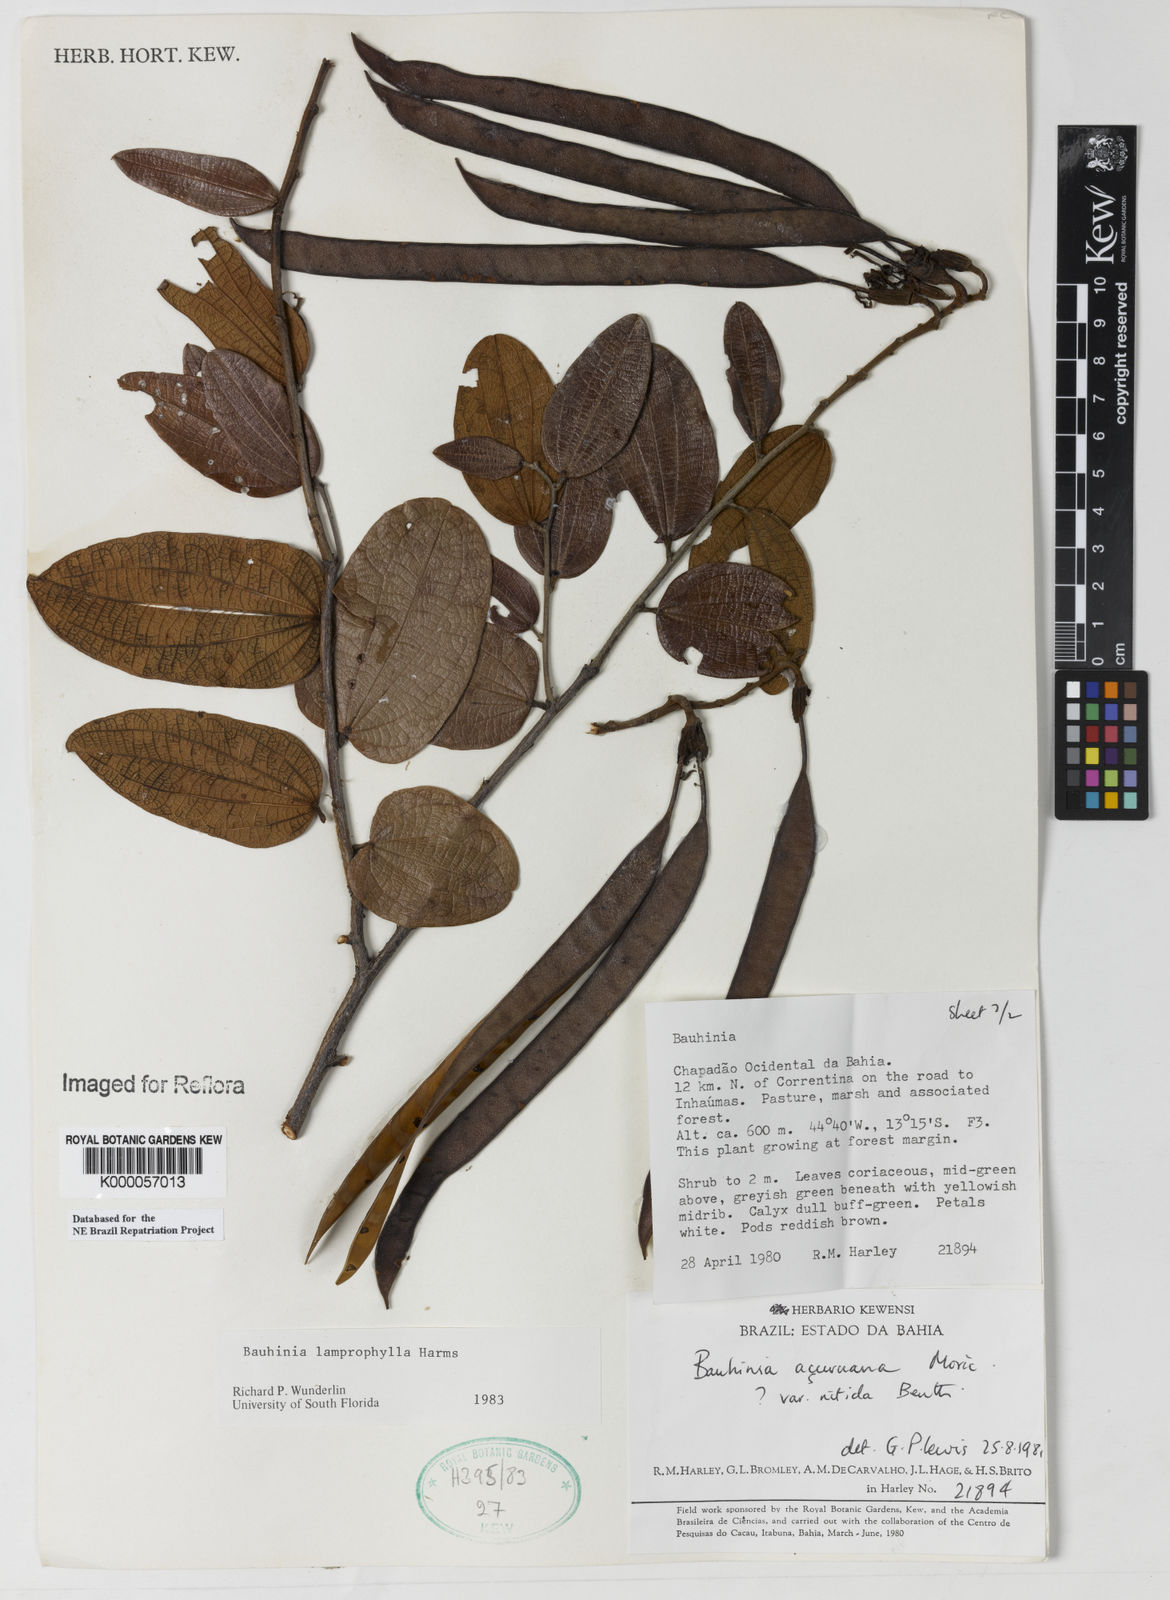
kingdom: Plantae
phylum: Tracheophyta
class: Magnoliopsida
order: Fabales
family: Fabaceae
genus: Bauhinia
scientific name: Bauhinia acuruana
